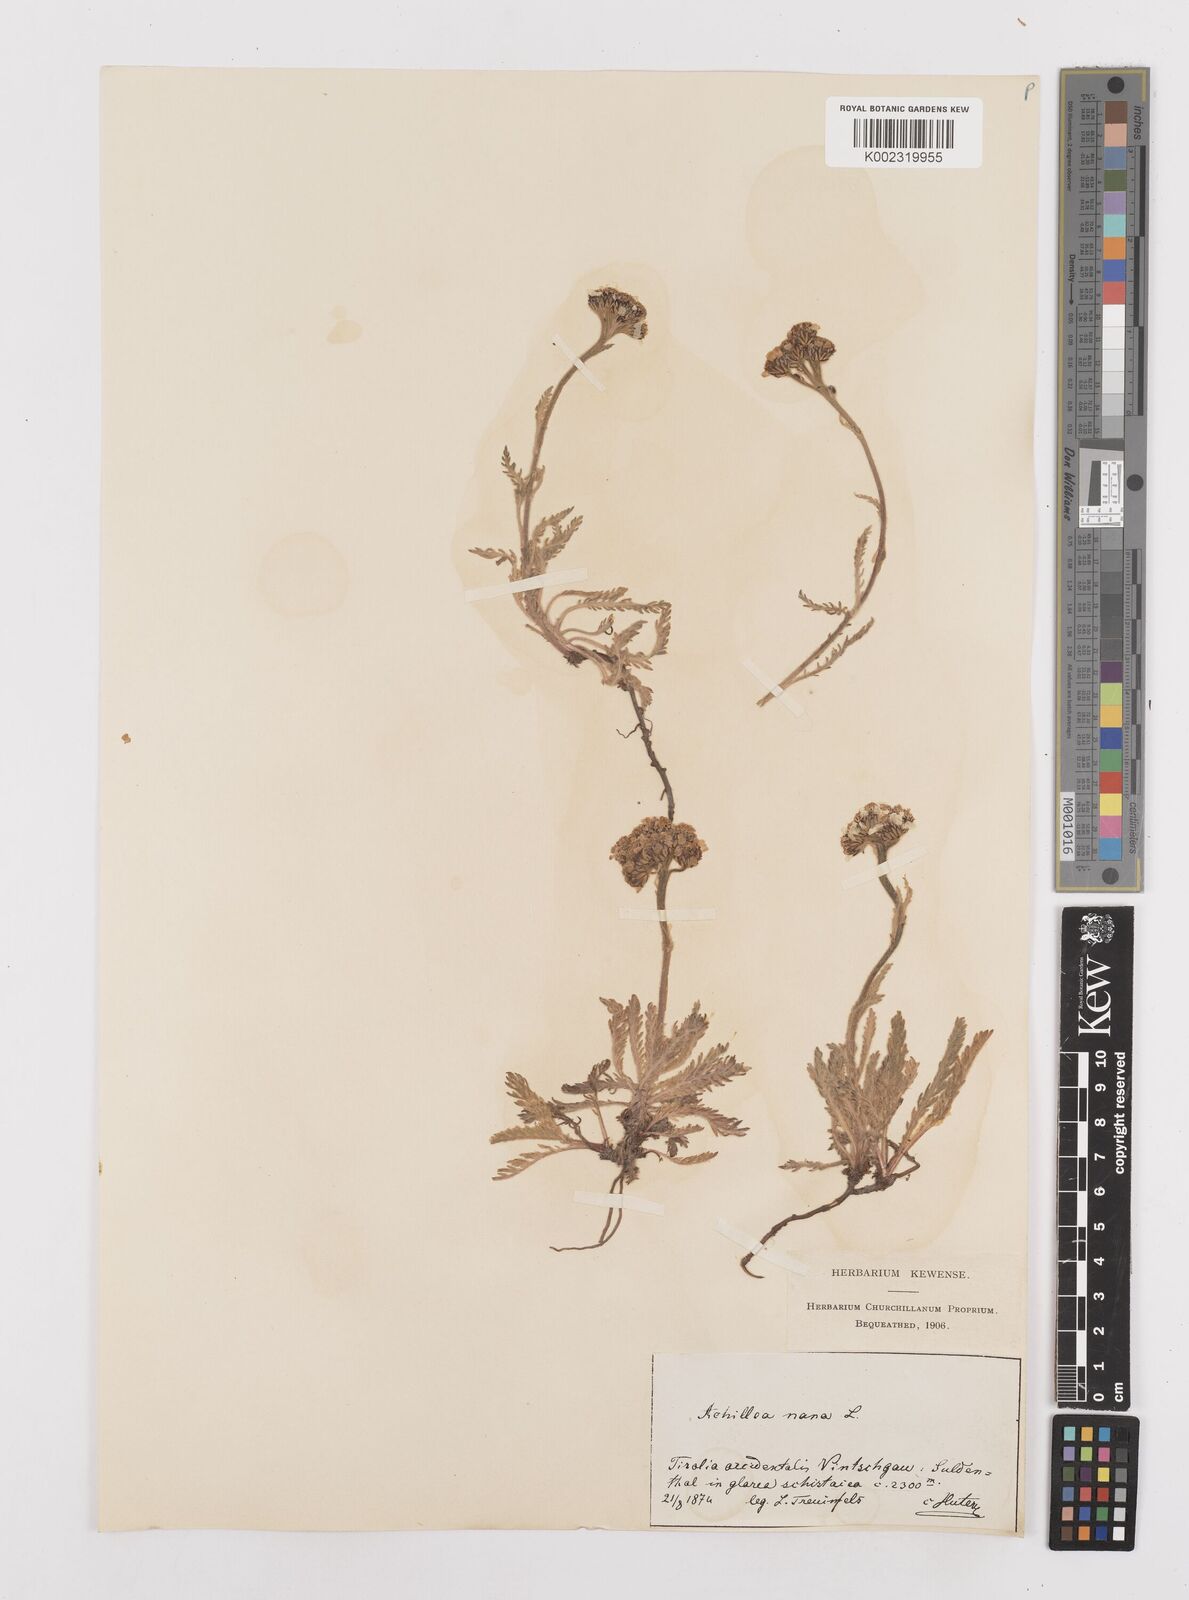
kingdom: Plantae
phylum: Tracheophyta
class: Magnoliopsida
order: Asterales
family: Asteraceae
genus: Achillea
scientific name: Achillea nana
